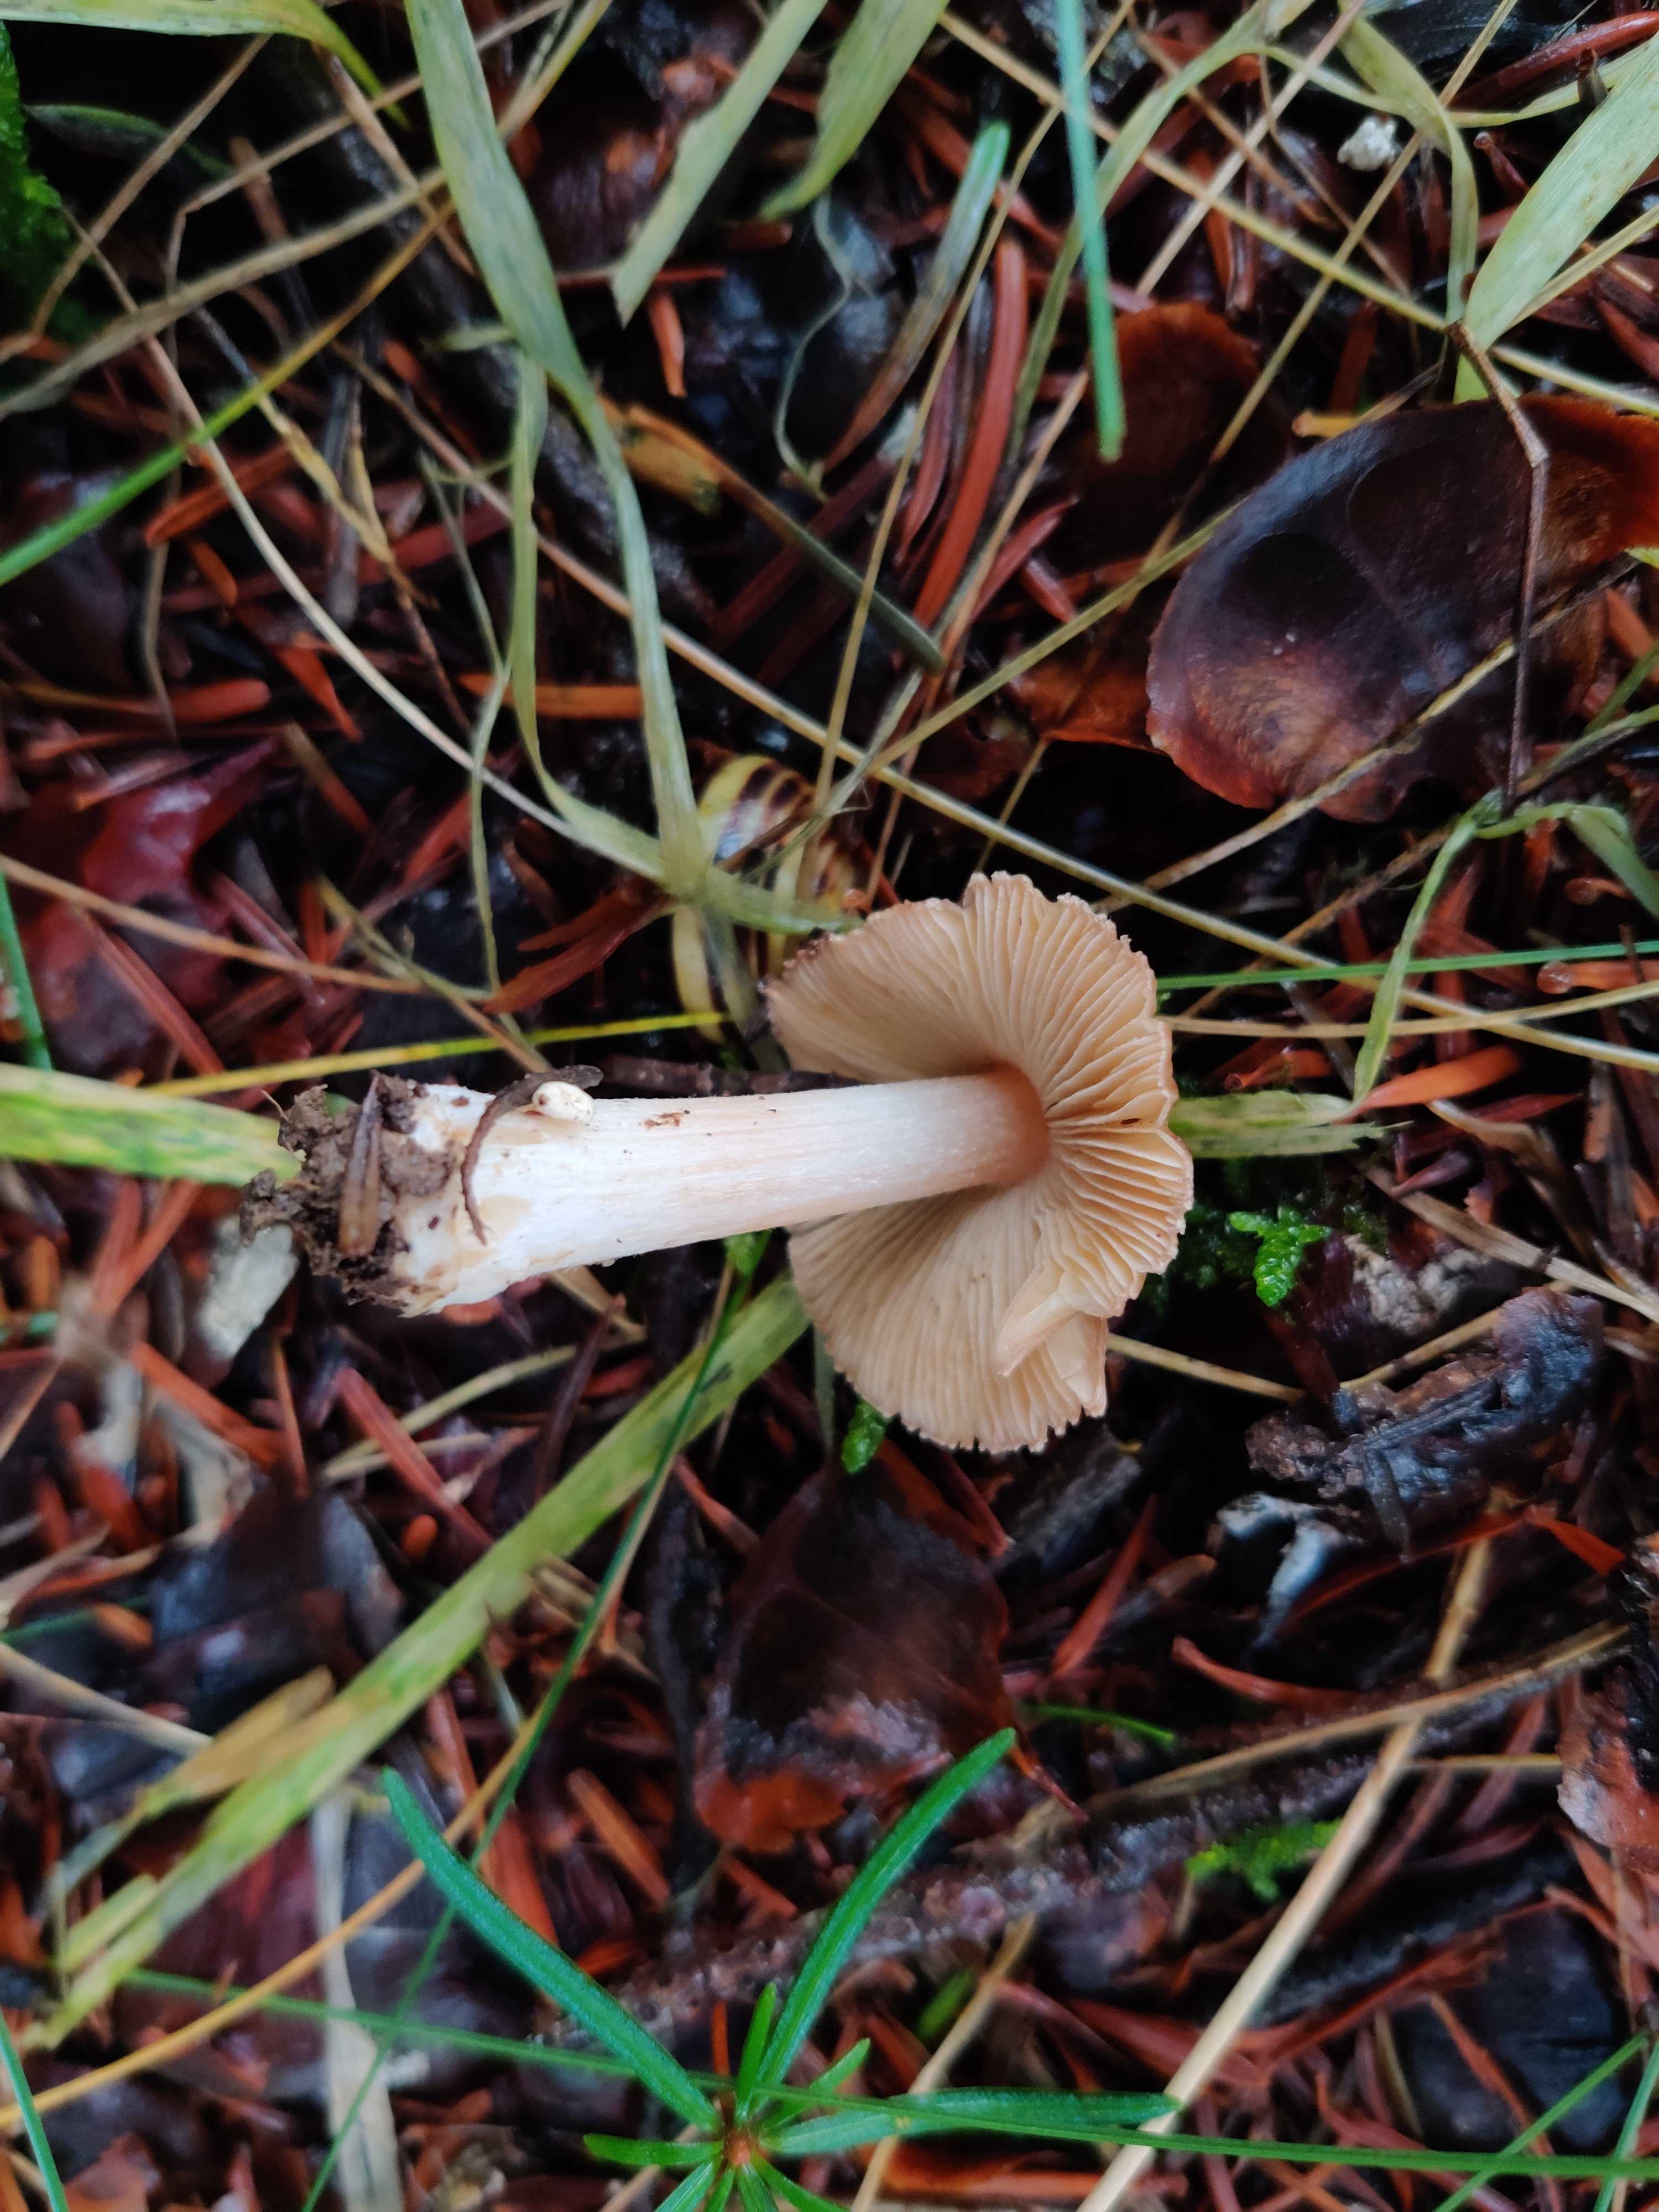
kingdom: Fungi
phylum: Basidiomycota
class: Agaricomycetes
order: Agaricales
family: Inocybaceae
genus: Inocybe
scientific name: Inocybe
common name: trævlhat
